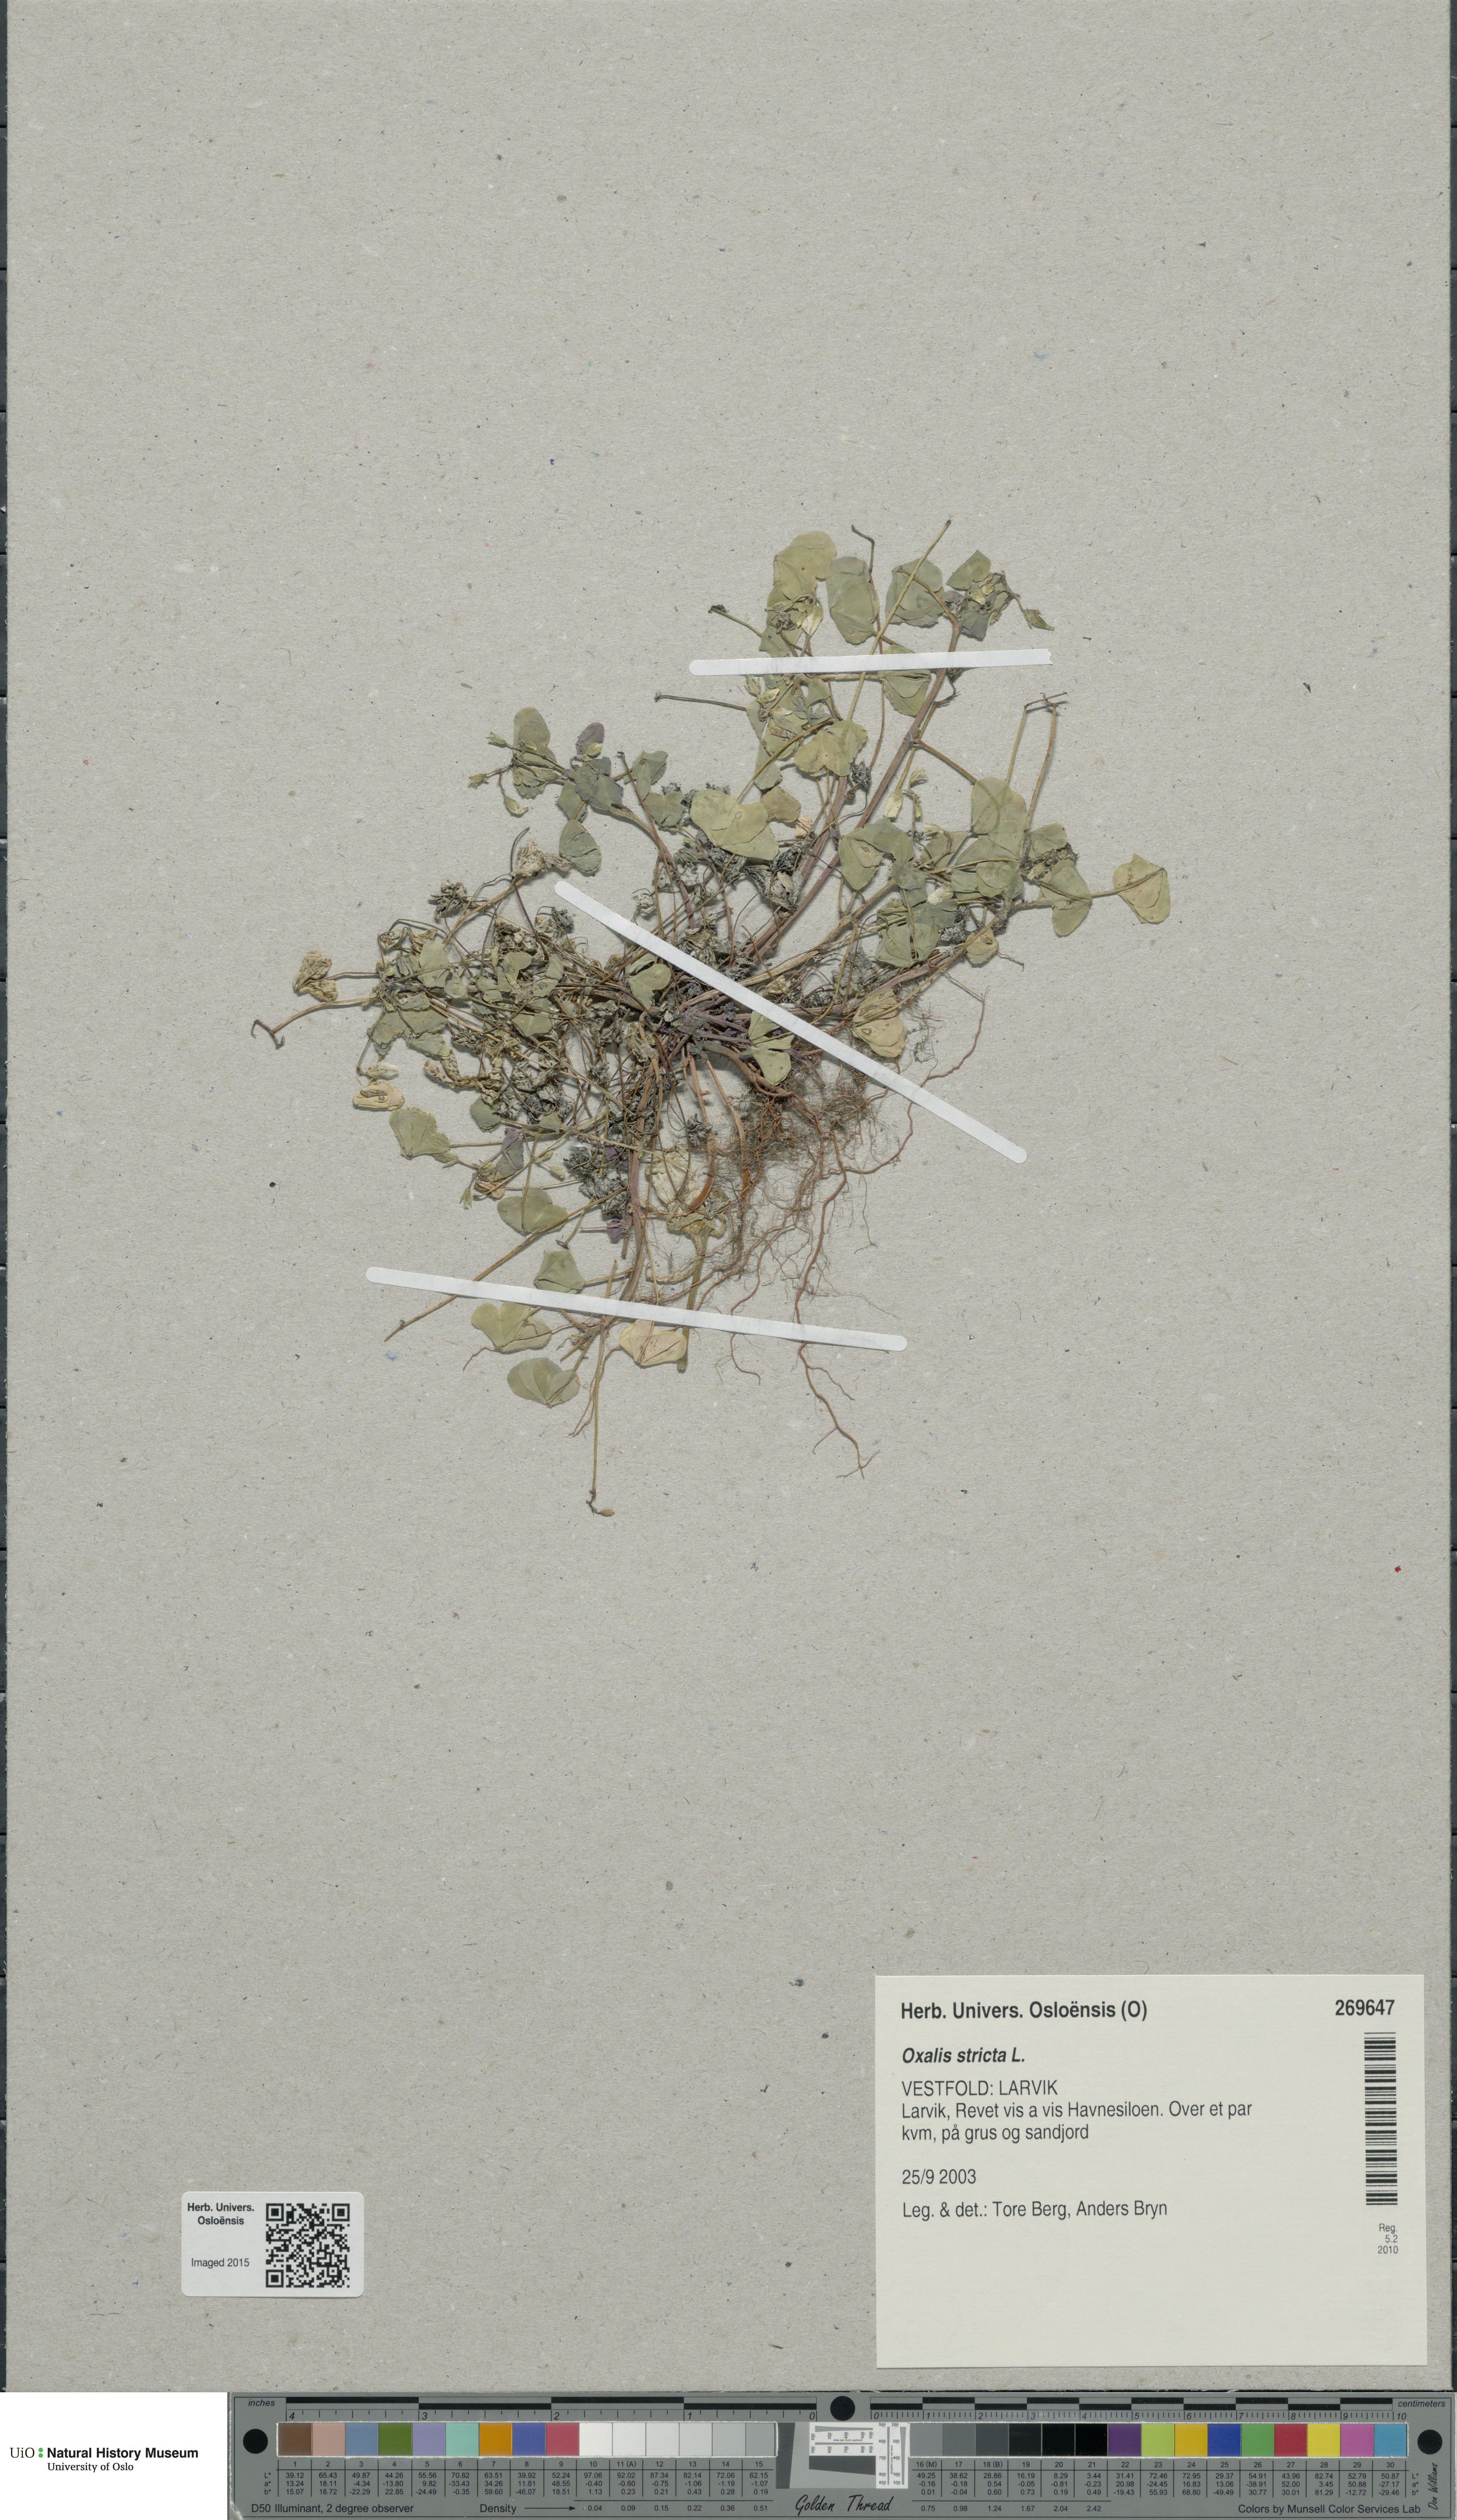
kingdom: Plantae
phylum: Tracheophyta
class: Magnoliopsida
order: Oxalidales
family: Oxalidaceae
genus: Oxalis
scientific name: Oxalis dillenii
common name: Sussex yellow-sorrel
